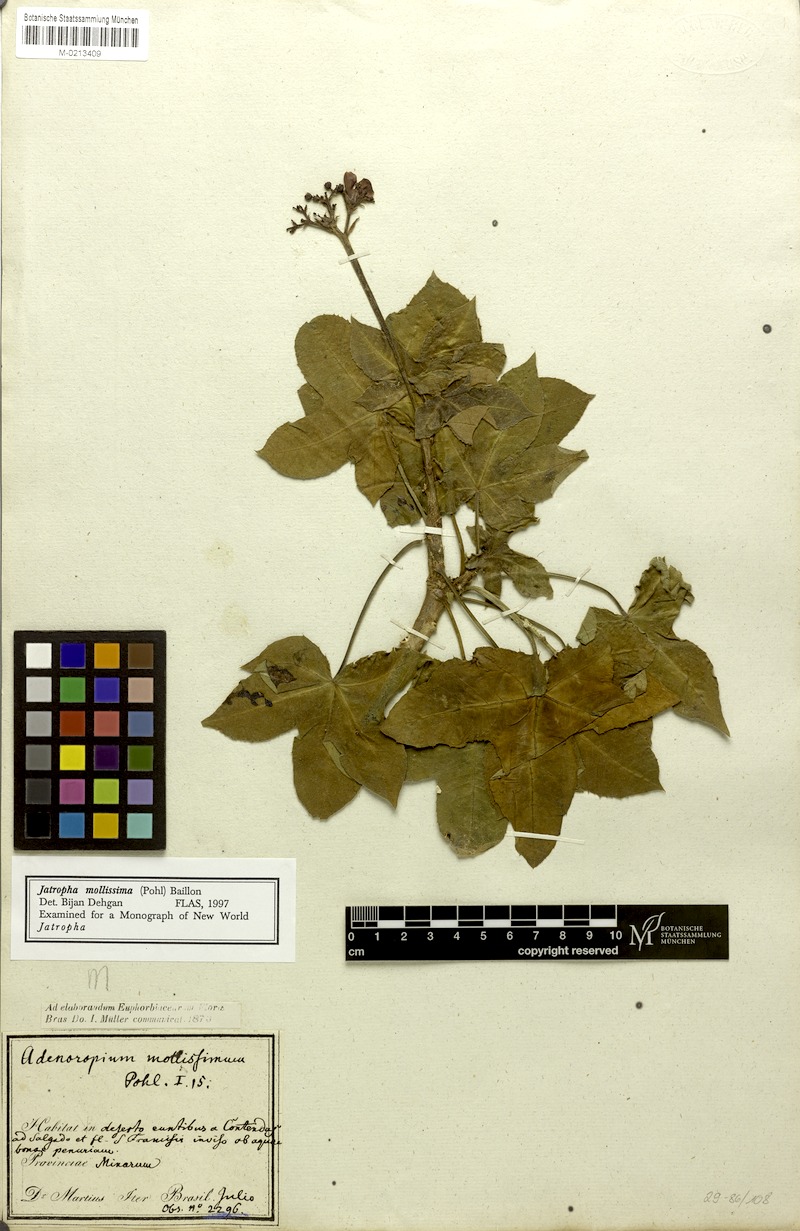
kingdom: Plantae
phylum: Tracheophyta
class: Magnoliopsida
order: Malpighiales
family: Euphorbiaceae
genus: Jatropha
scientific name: Jatropha mollissima
